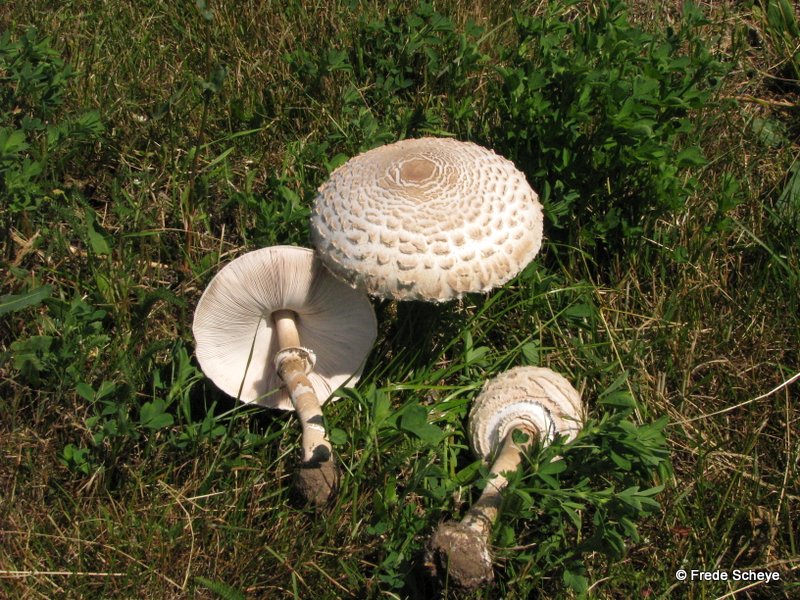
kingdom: Fungi
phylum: Basidiomycota
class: Agaricomycetes
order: Agaricales
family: Agaricaceae
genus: Macrolepiota
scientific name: Macrolepiota procera
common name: stor kæmpeparasolhat
